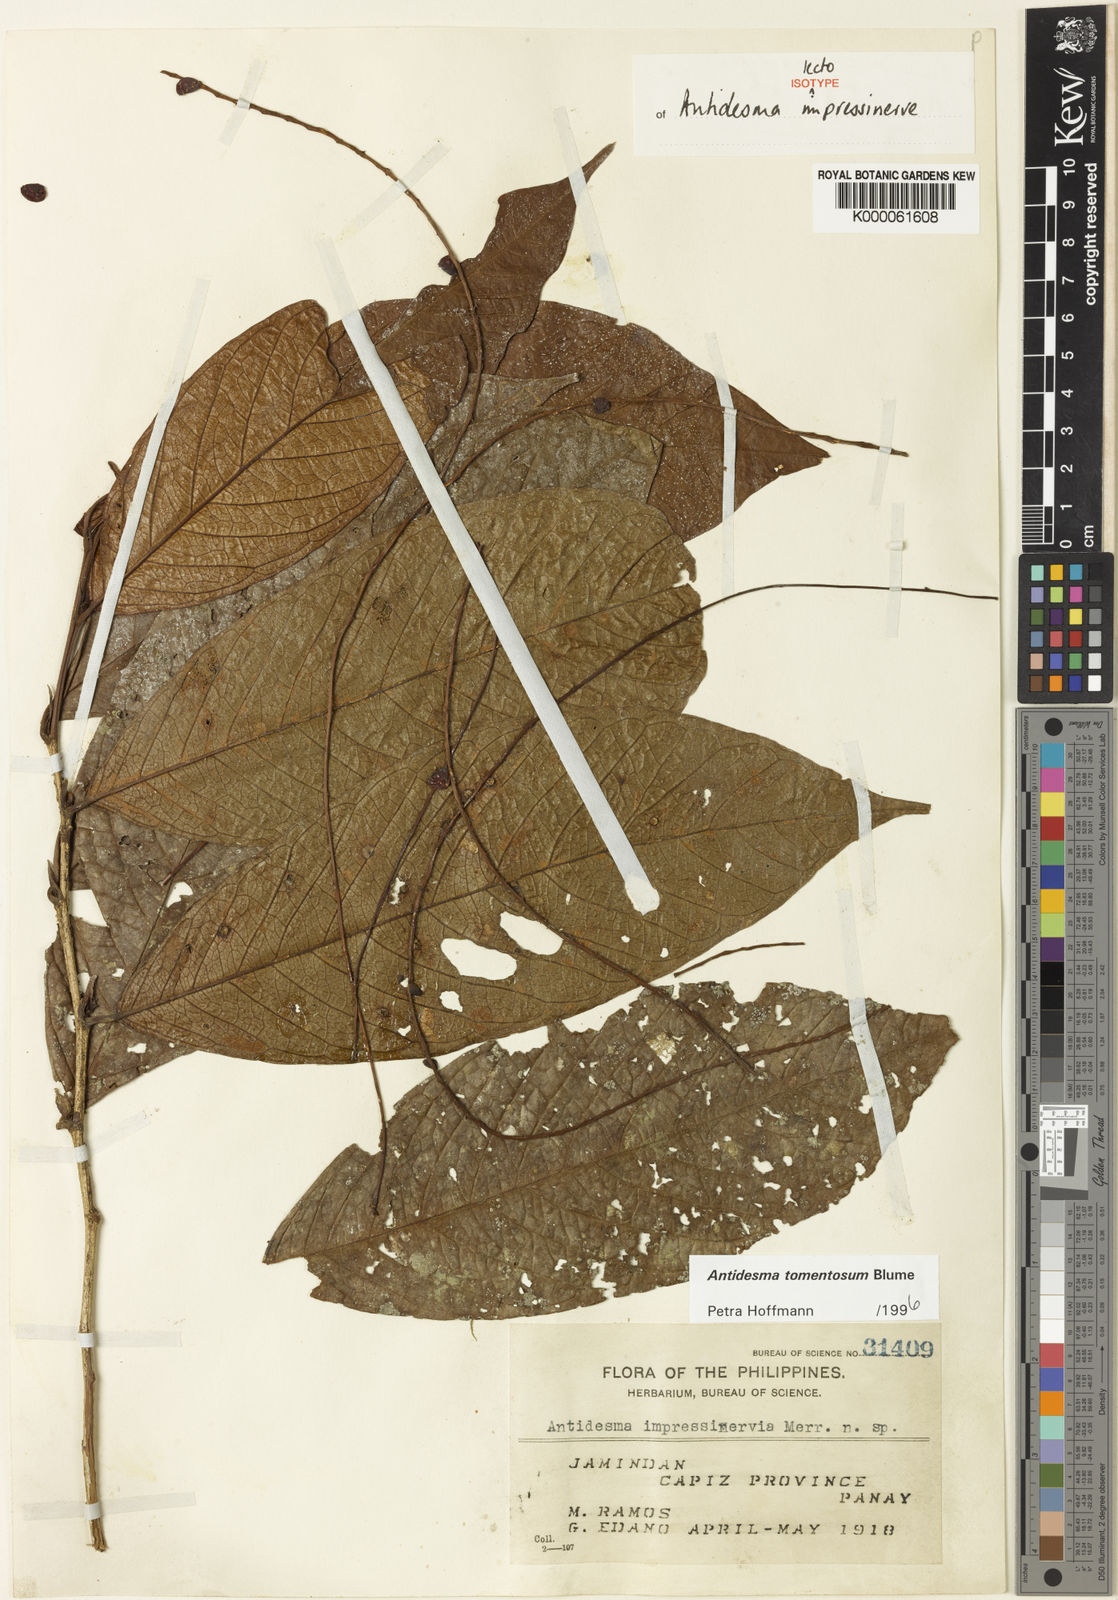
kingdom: Plantae
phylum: Tracheophyta
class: Magnoliopsida
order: Malpighiales
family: Phyllanthaceae
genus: Antidesma
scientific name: Antidesma tomentosum
